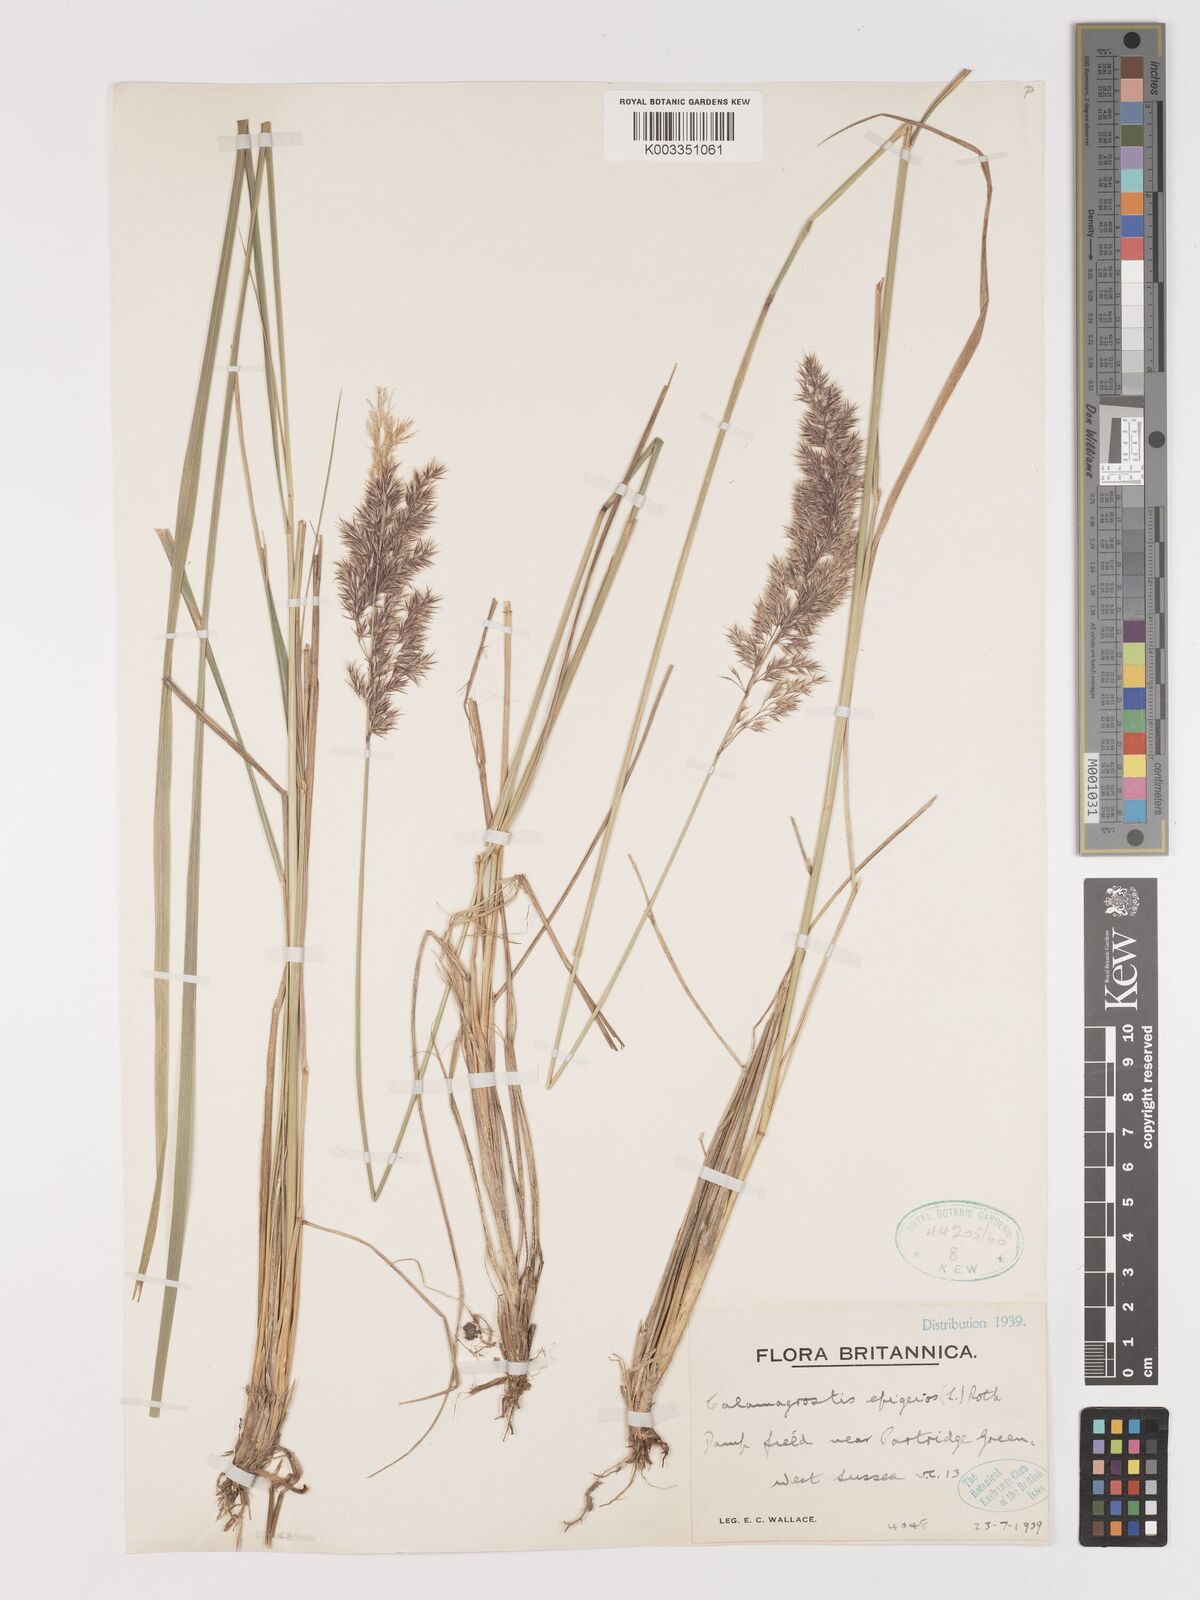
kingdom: Plantae
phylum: Tracheophyta
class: Liliopsida
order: Poales
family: Poaceae
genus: Calamagrostis
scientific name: Calamagrostis epigejos
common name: Wood small-reed
